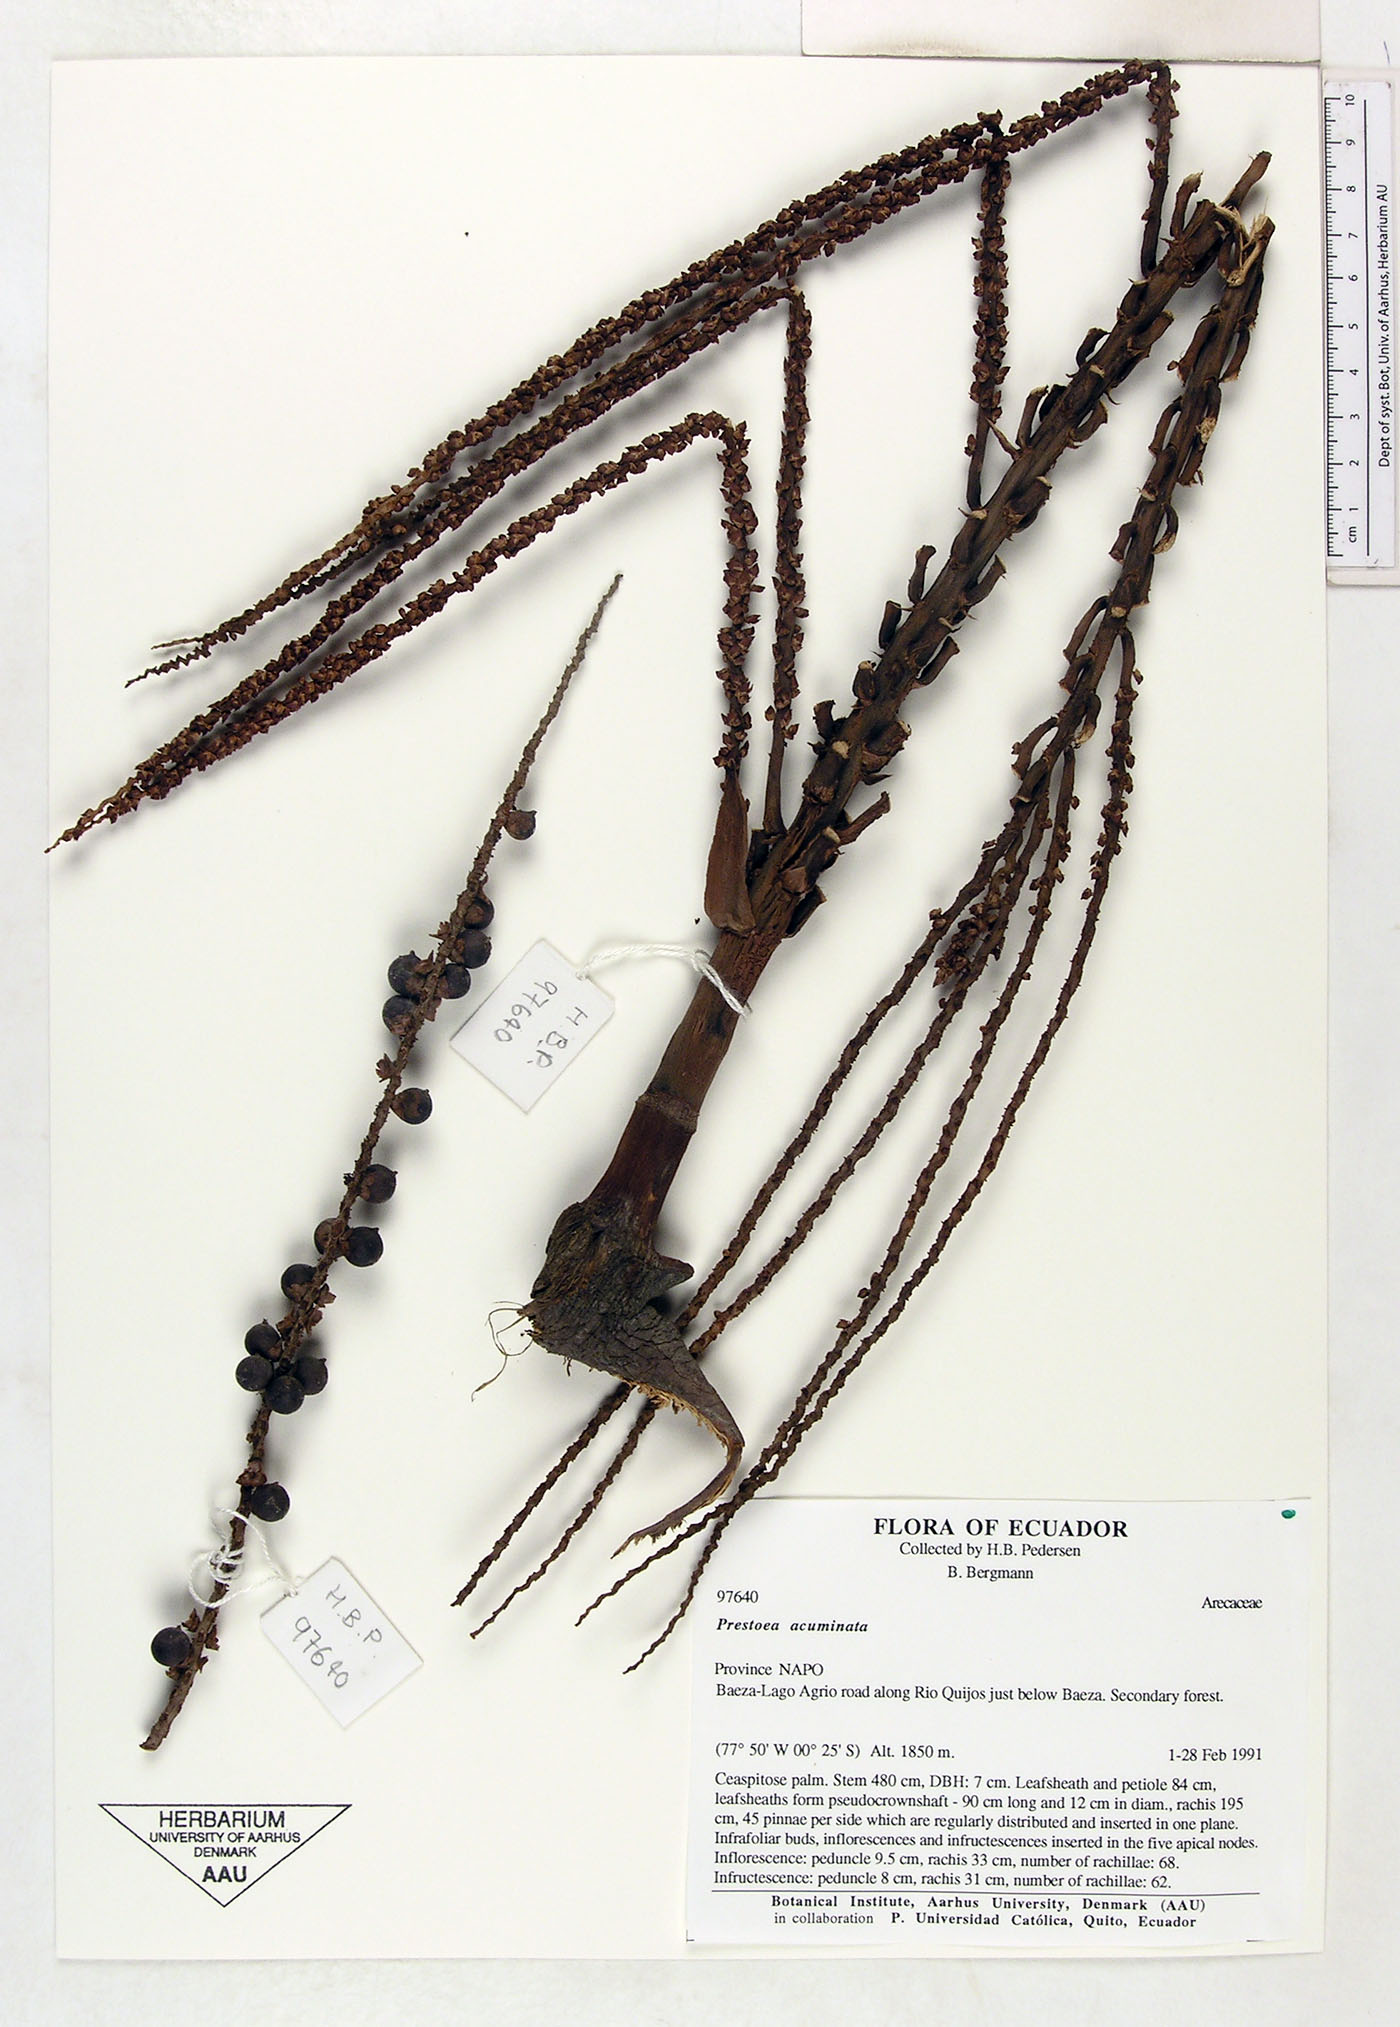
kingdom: Plantae
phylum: Tracheophyta
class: Liliopsida
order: Arecales
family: Arecaceae
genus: Prestoea
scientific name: Prestoea acuminata
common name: Sierran palm
